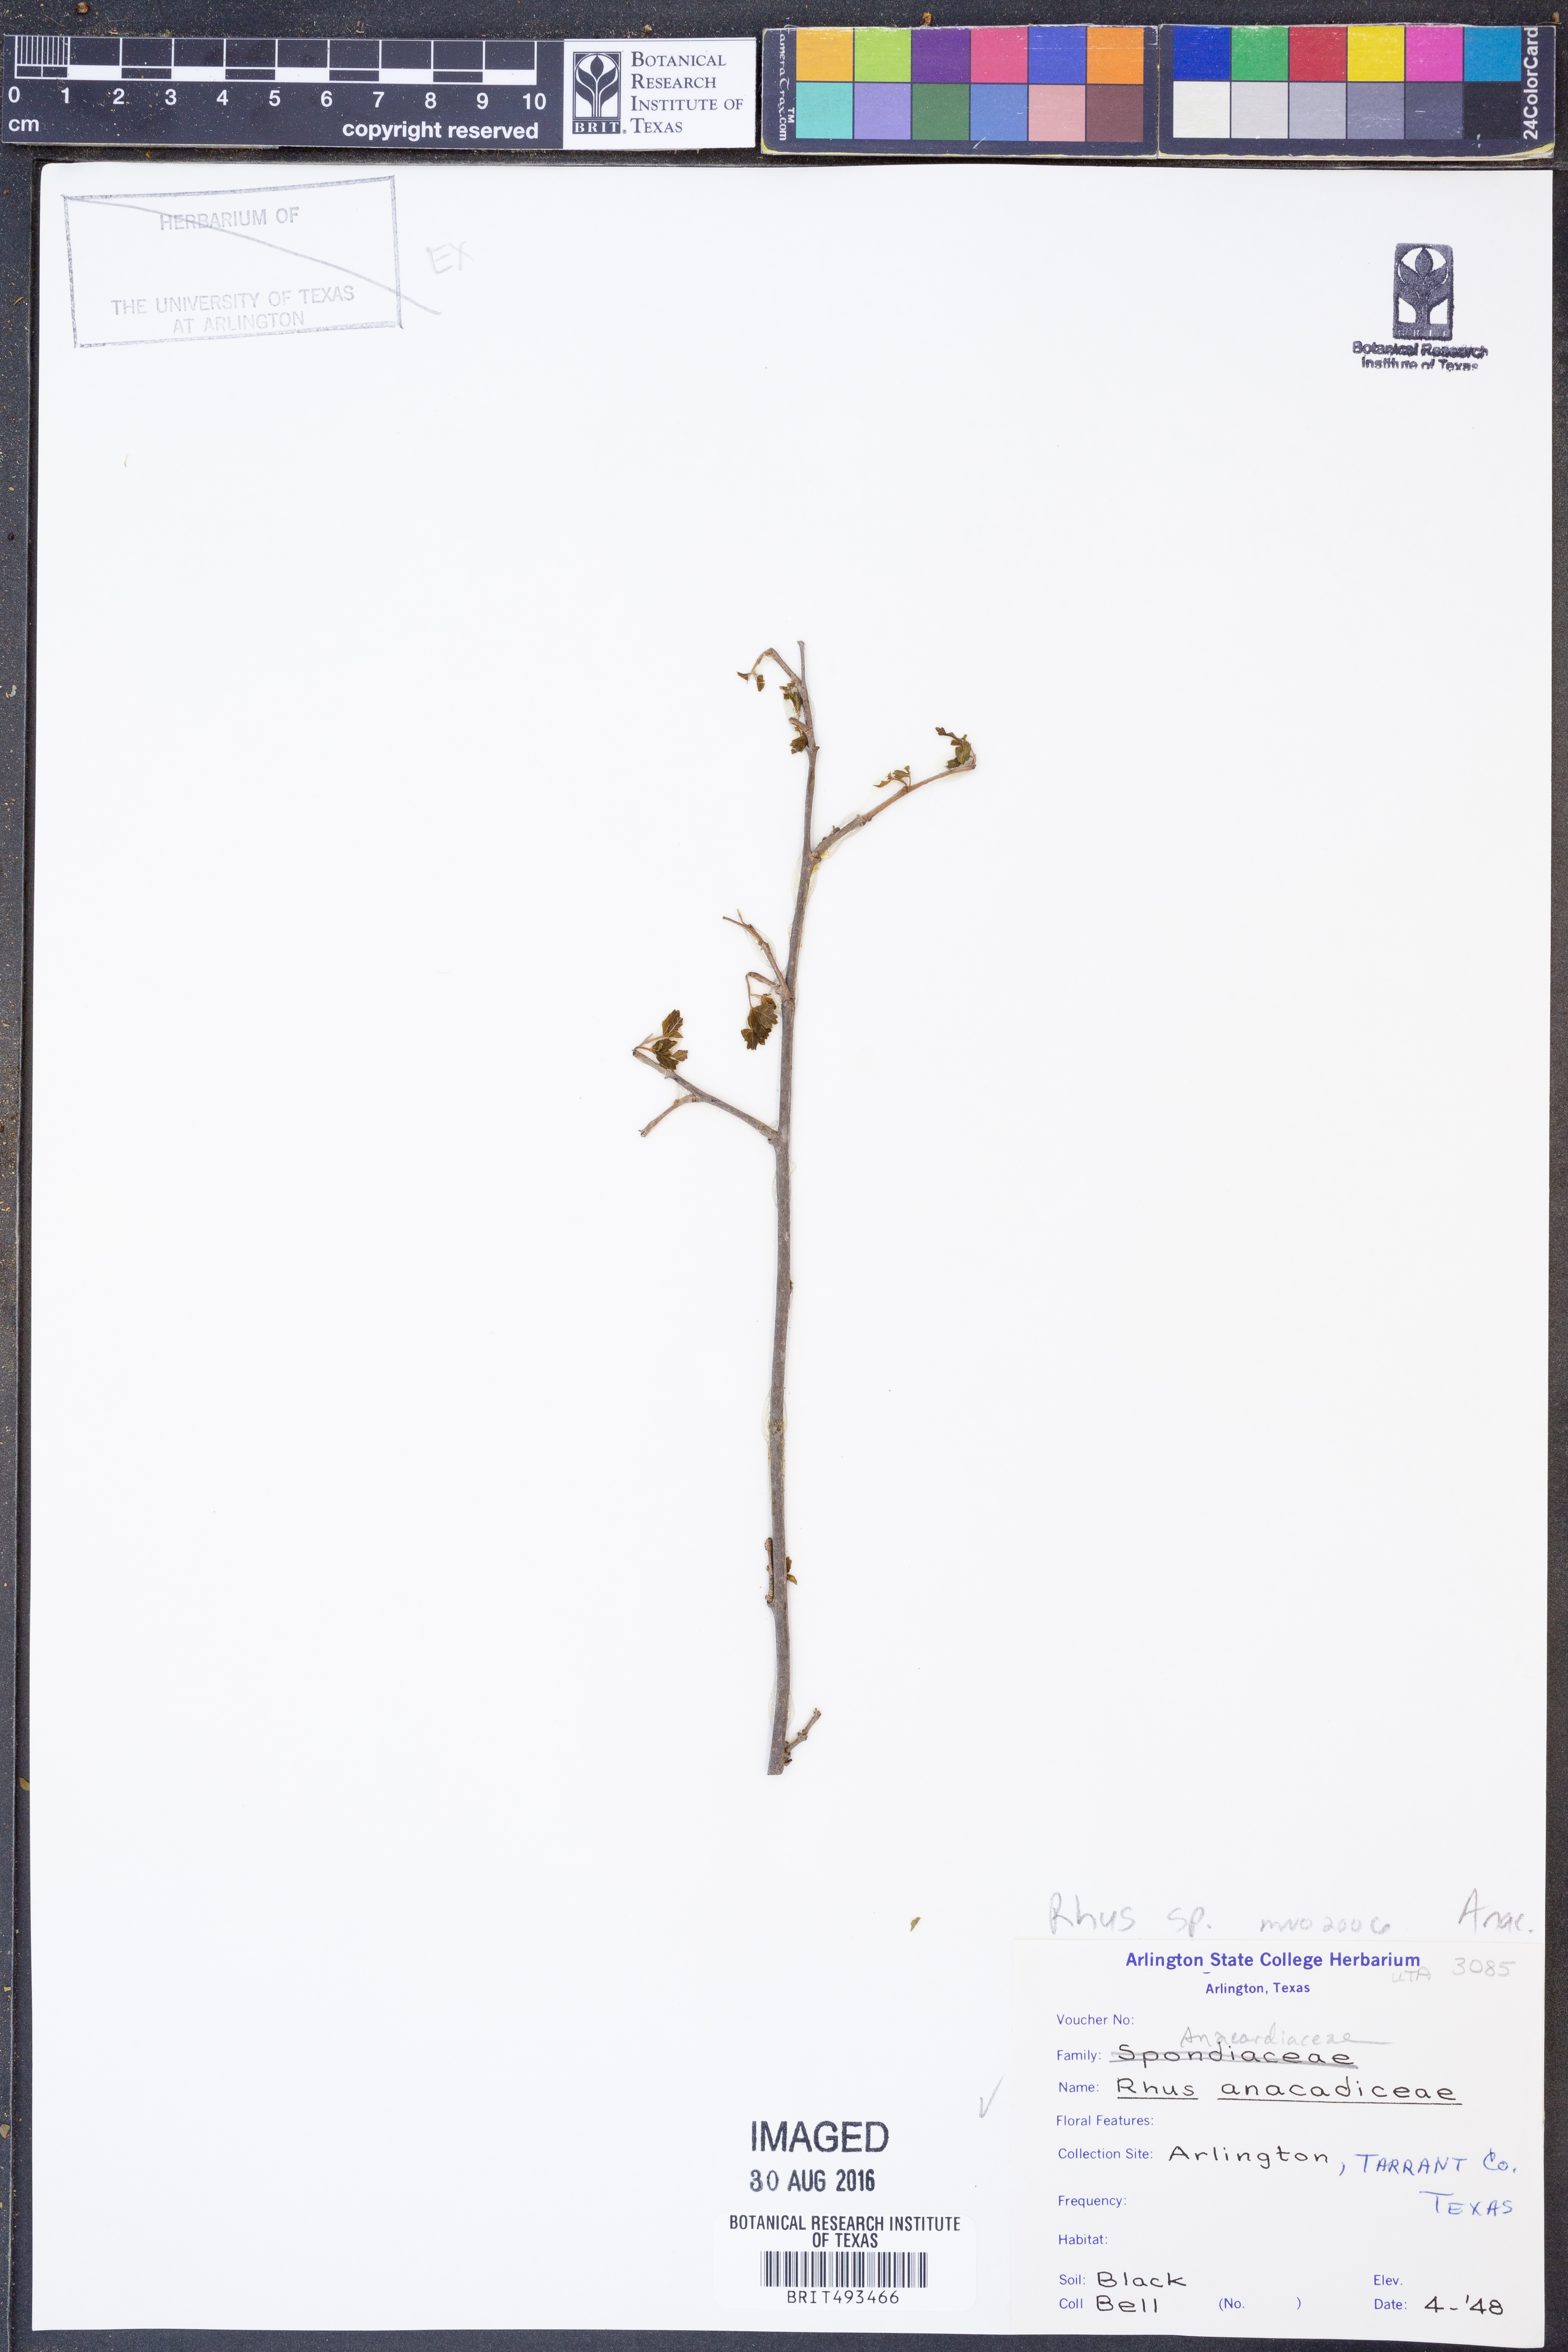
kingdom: Plantae
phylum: Tracheophyta
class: Magnoliopsida
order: Sapindales
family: Anacardiaceae
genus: Rhus
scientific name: Rhus
